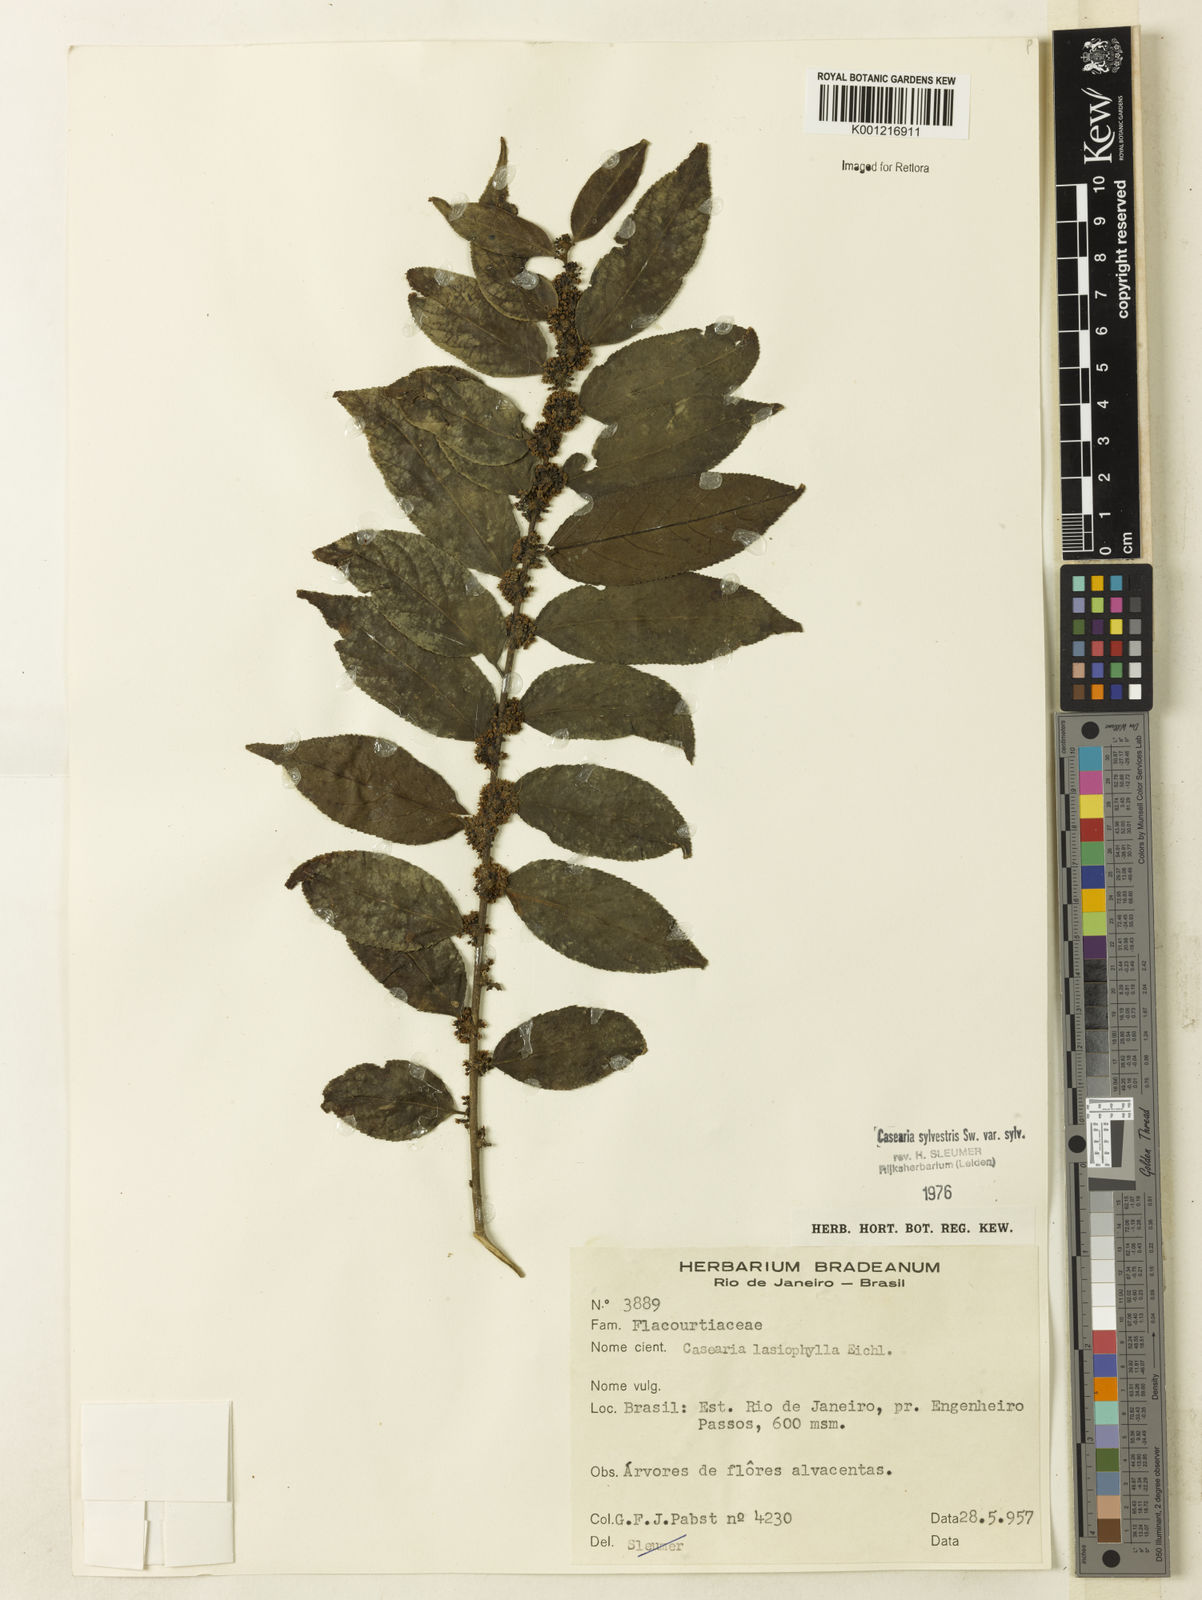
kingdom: Plantae
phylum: Tracheophyta
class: Magnoliopsida
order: Malpighiales
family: Salicaceae
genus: Casearia
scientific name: Casearia sylvestris
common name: Wild sage
